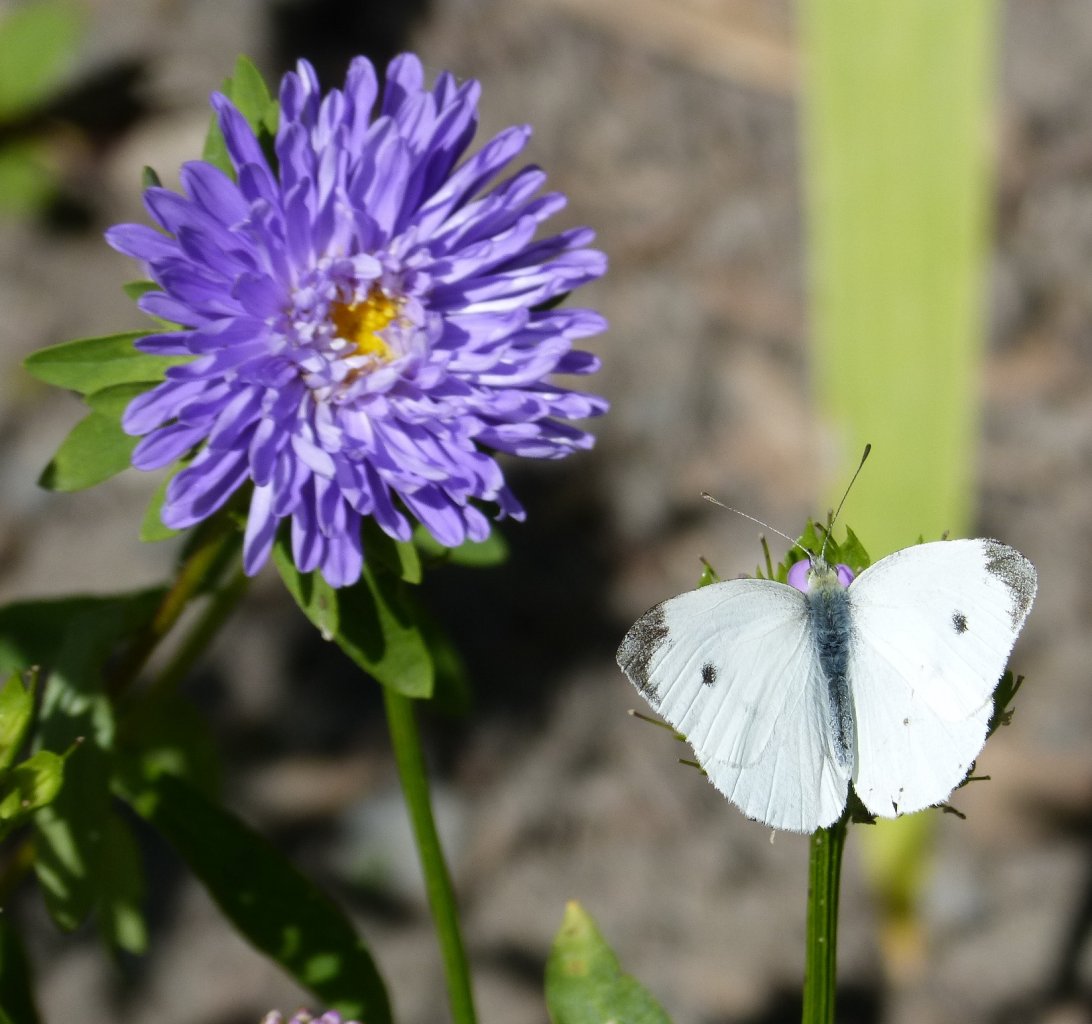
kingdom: Animalia
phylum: Arthropoda
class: Insecta
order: Lepidoptera
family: Pieridae
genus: Pieris
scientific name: Pieris rapae
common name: Cabbage White
